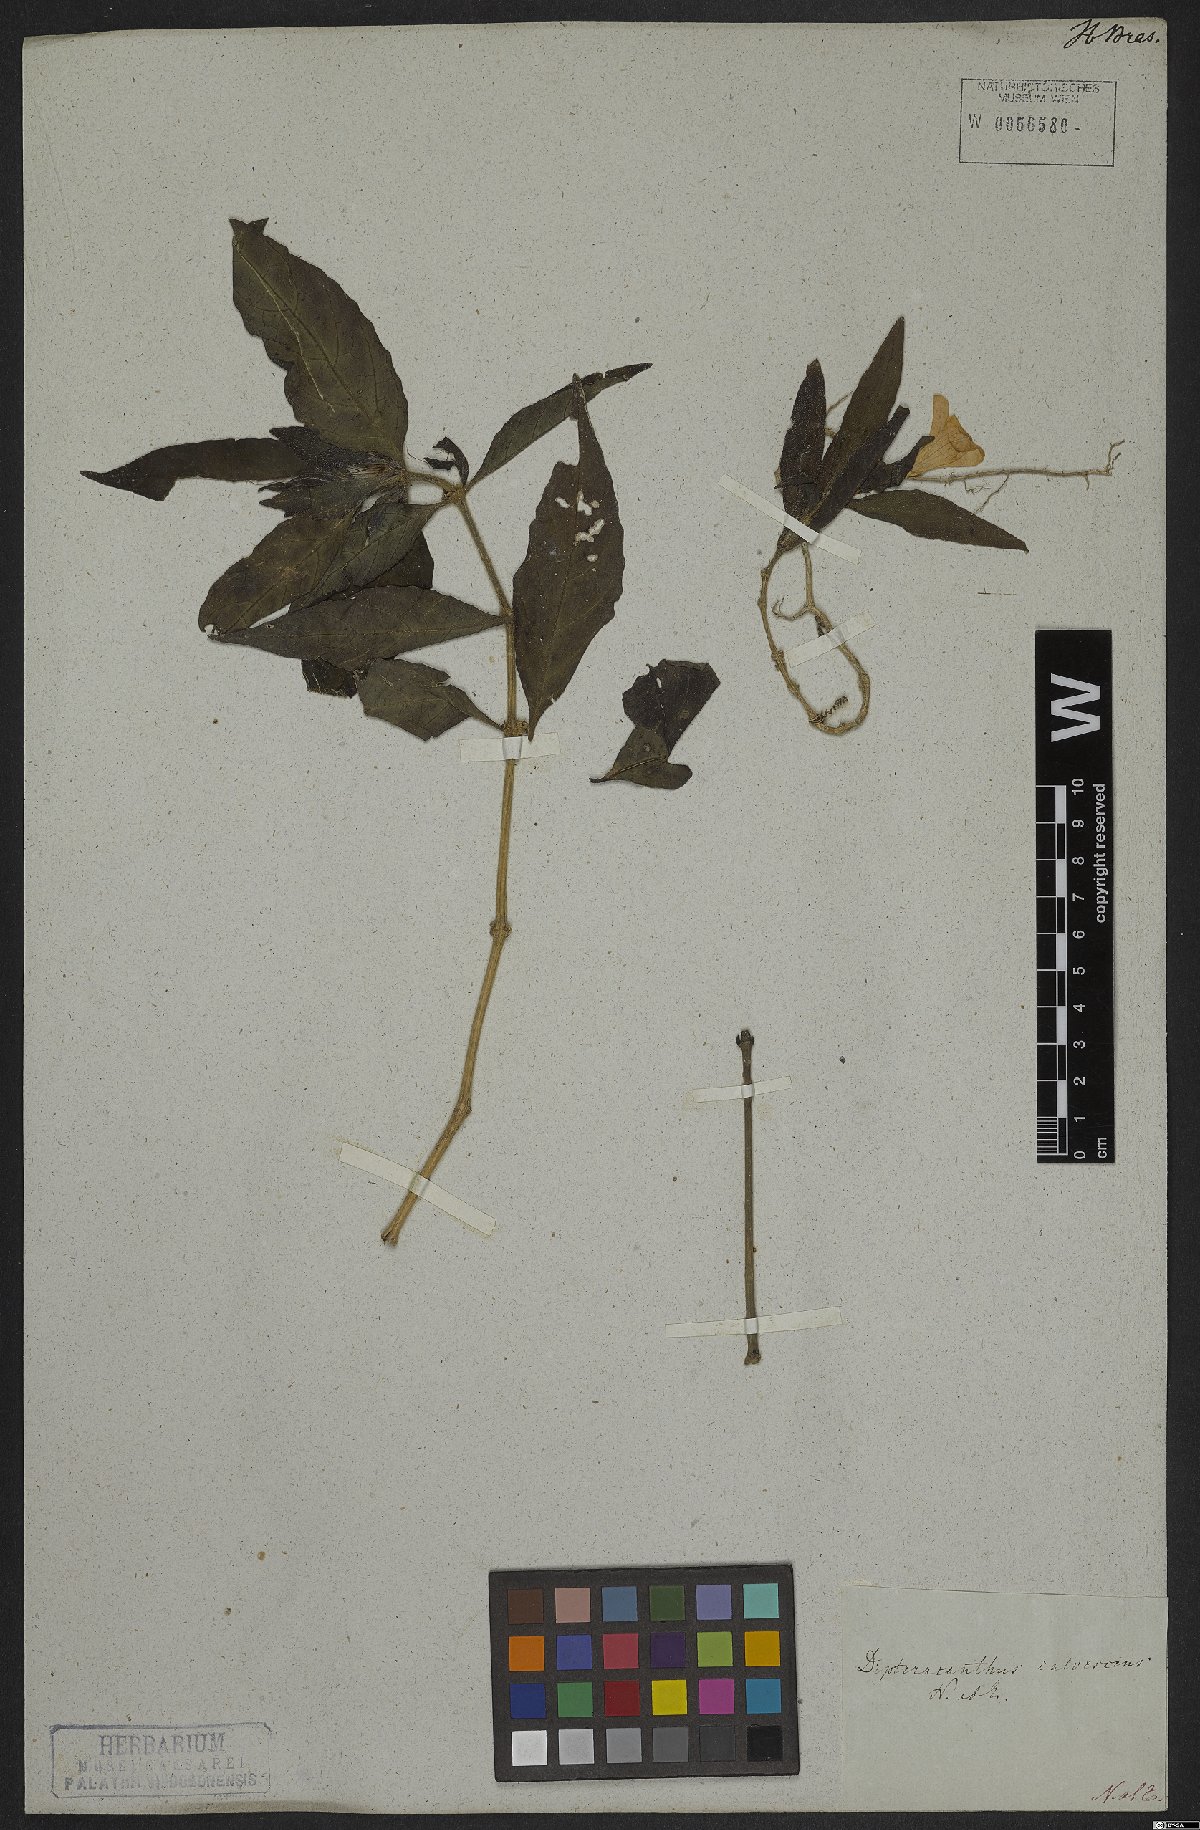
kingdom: Plantae
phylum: Tracheophyta
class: Magnoliopsida
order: Lamiales
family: Acanthaceae
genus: Ruellia
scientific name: Ruellia solitaria
